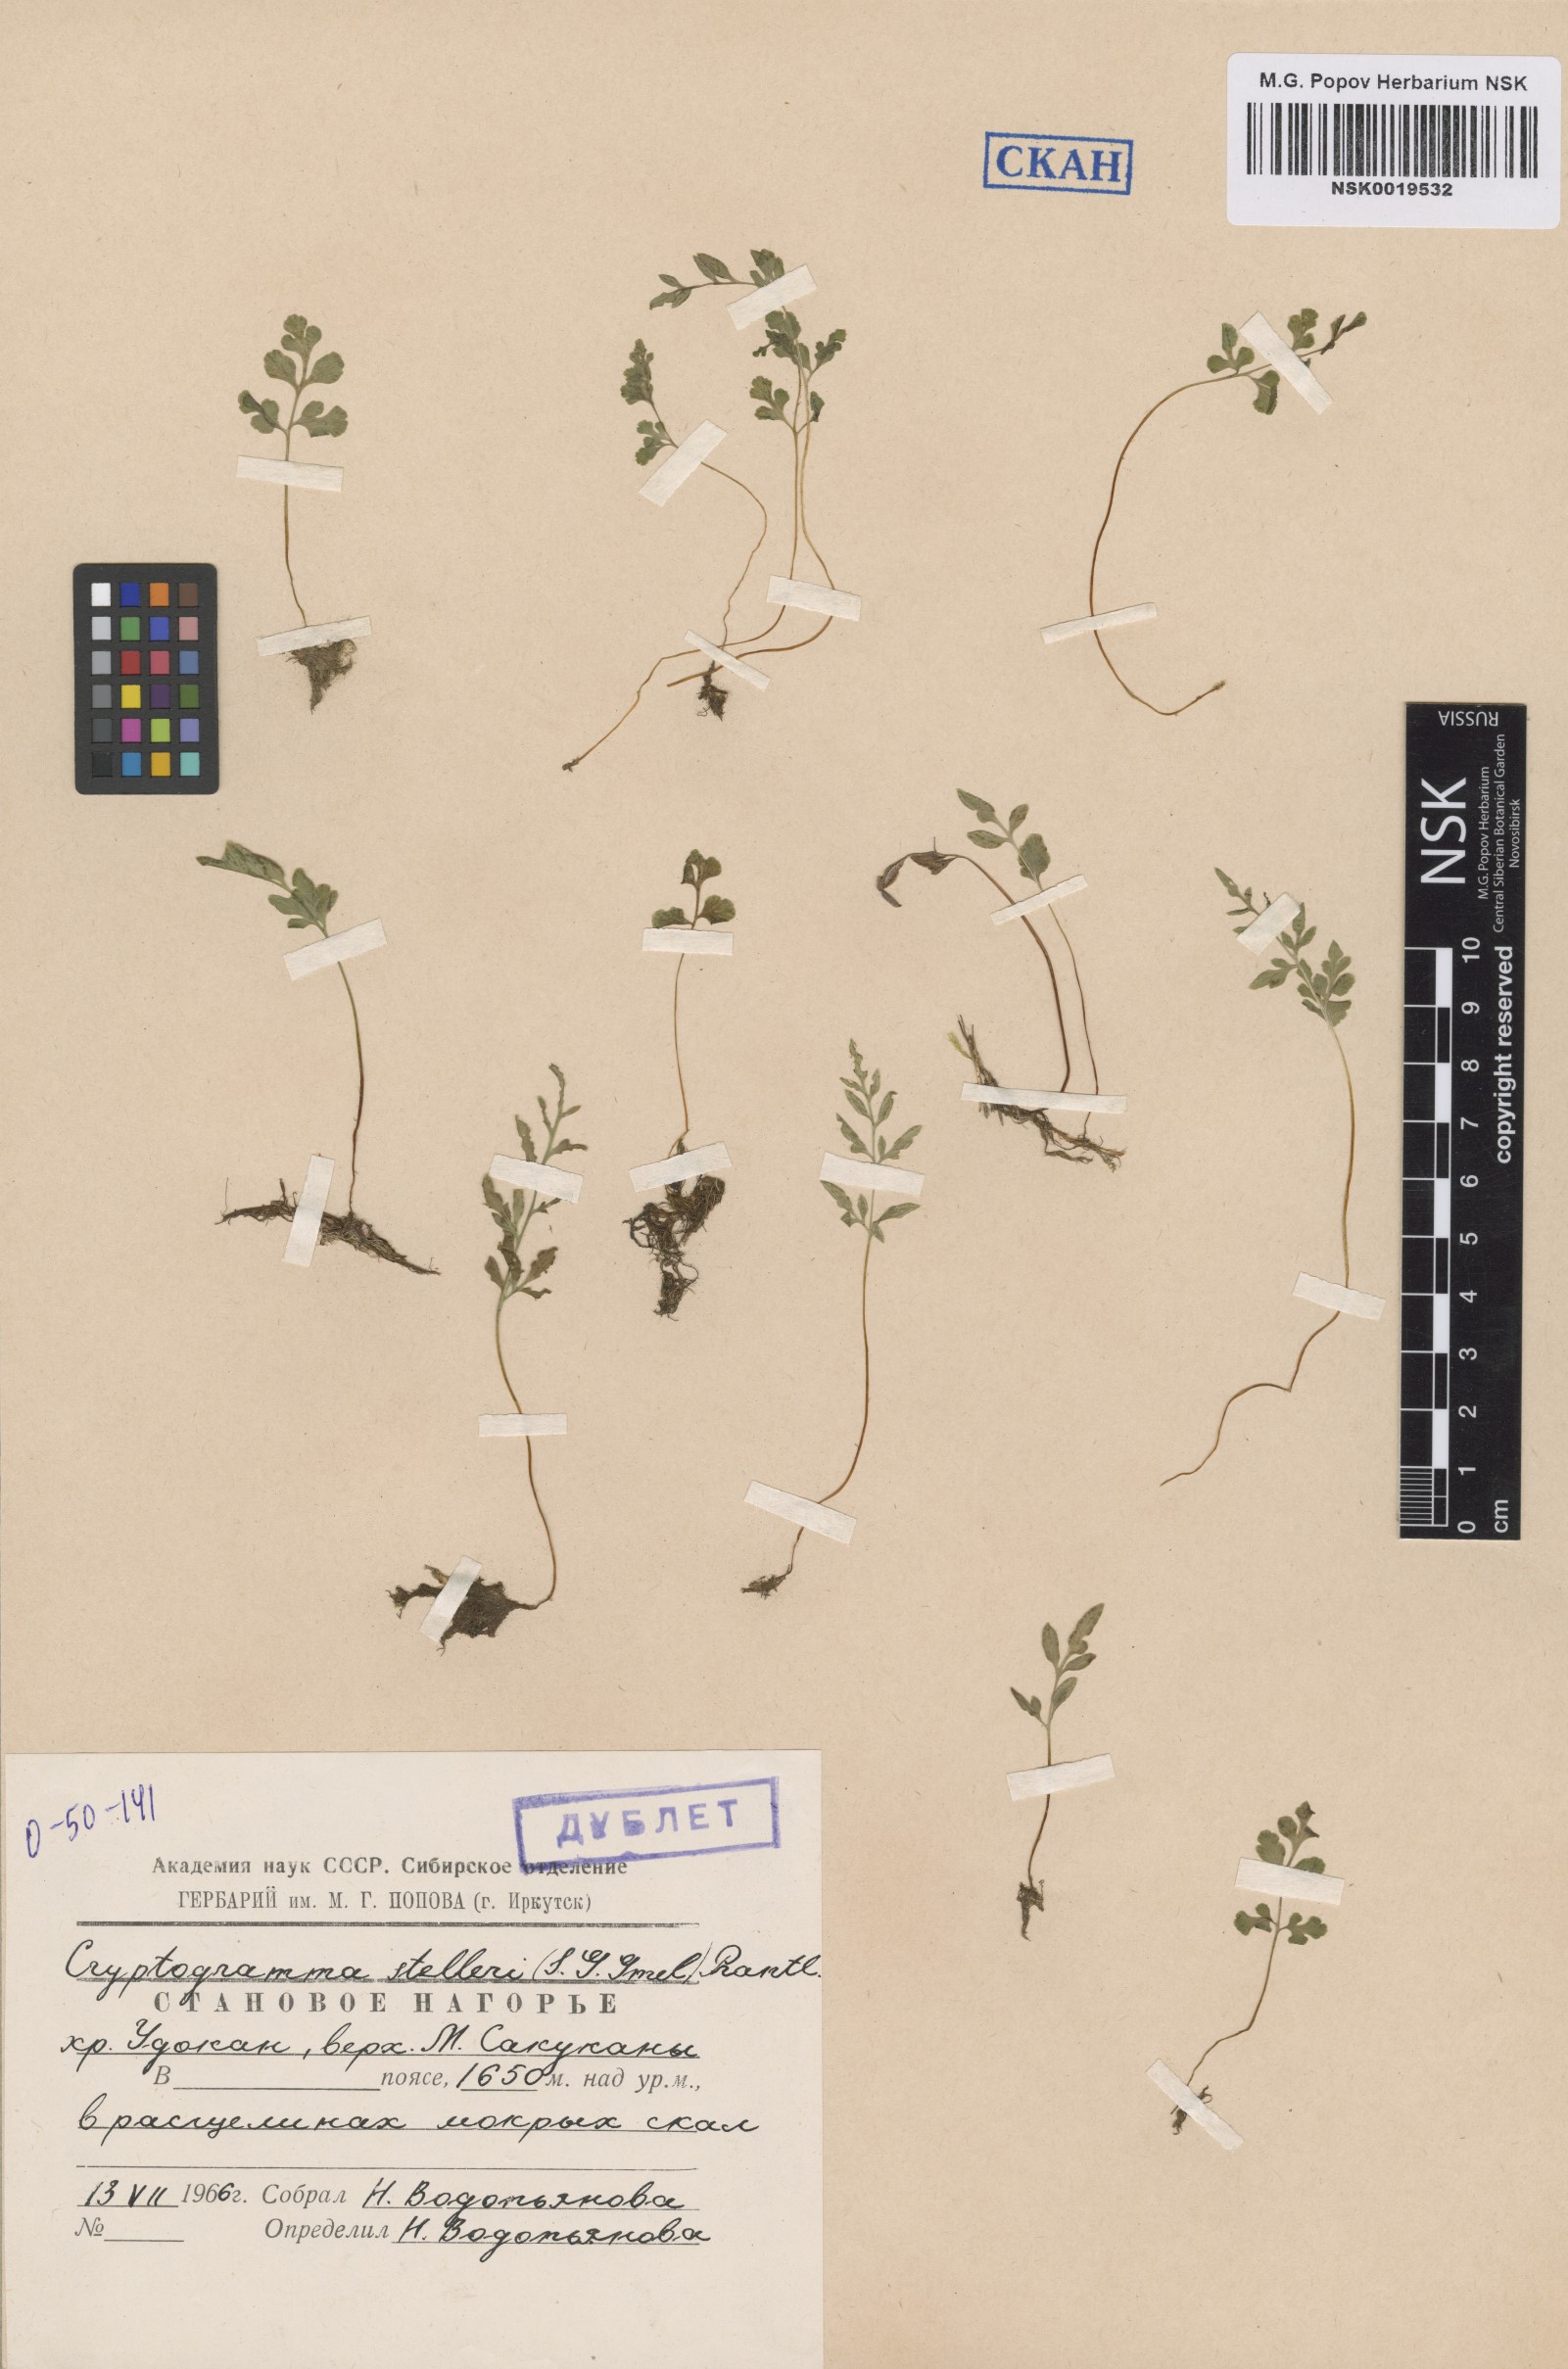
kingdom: Plantae
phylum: Tracheophyta
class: Polypodiopsida
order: Polypodiales
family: Pteridaceae
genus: Cryptogramma
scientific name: Cryptogramma stelleri
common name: Cliff-brake
